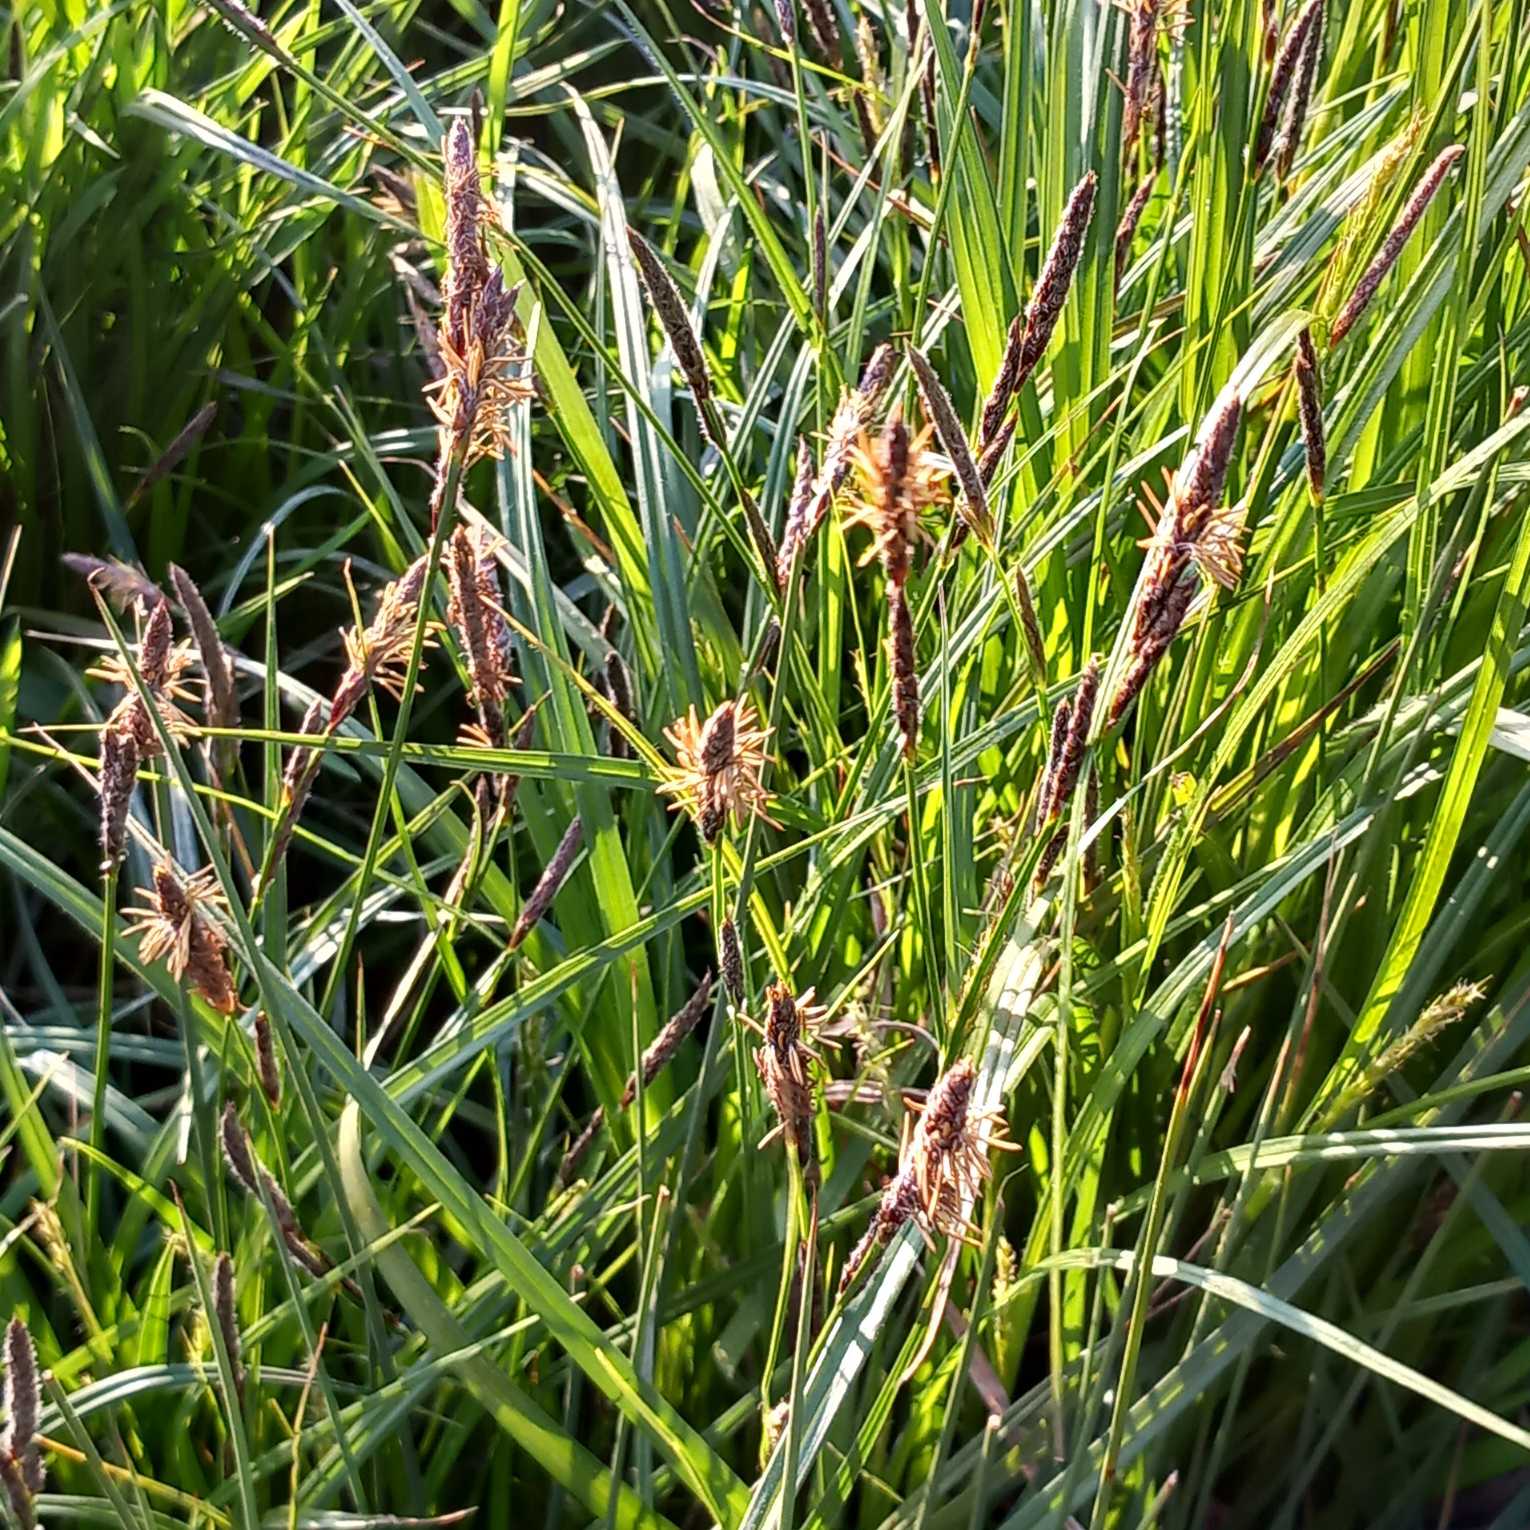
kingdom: Plantae
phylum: Tracheophyta
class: Liliopsida
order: Poales
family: Cyperaceae
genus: Carex
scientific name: Carex hirta
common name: Håret star
